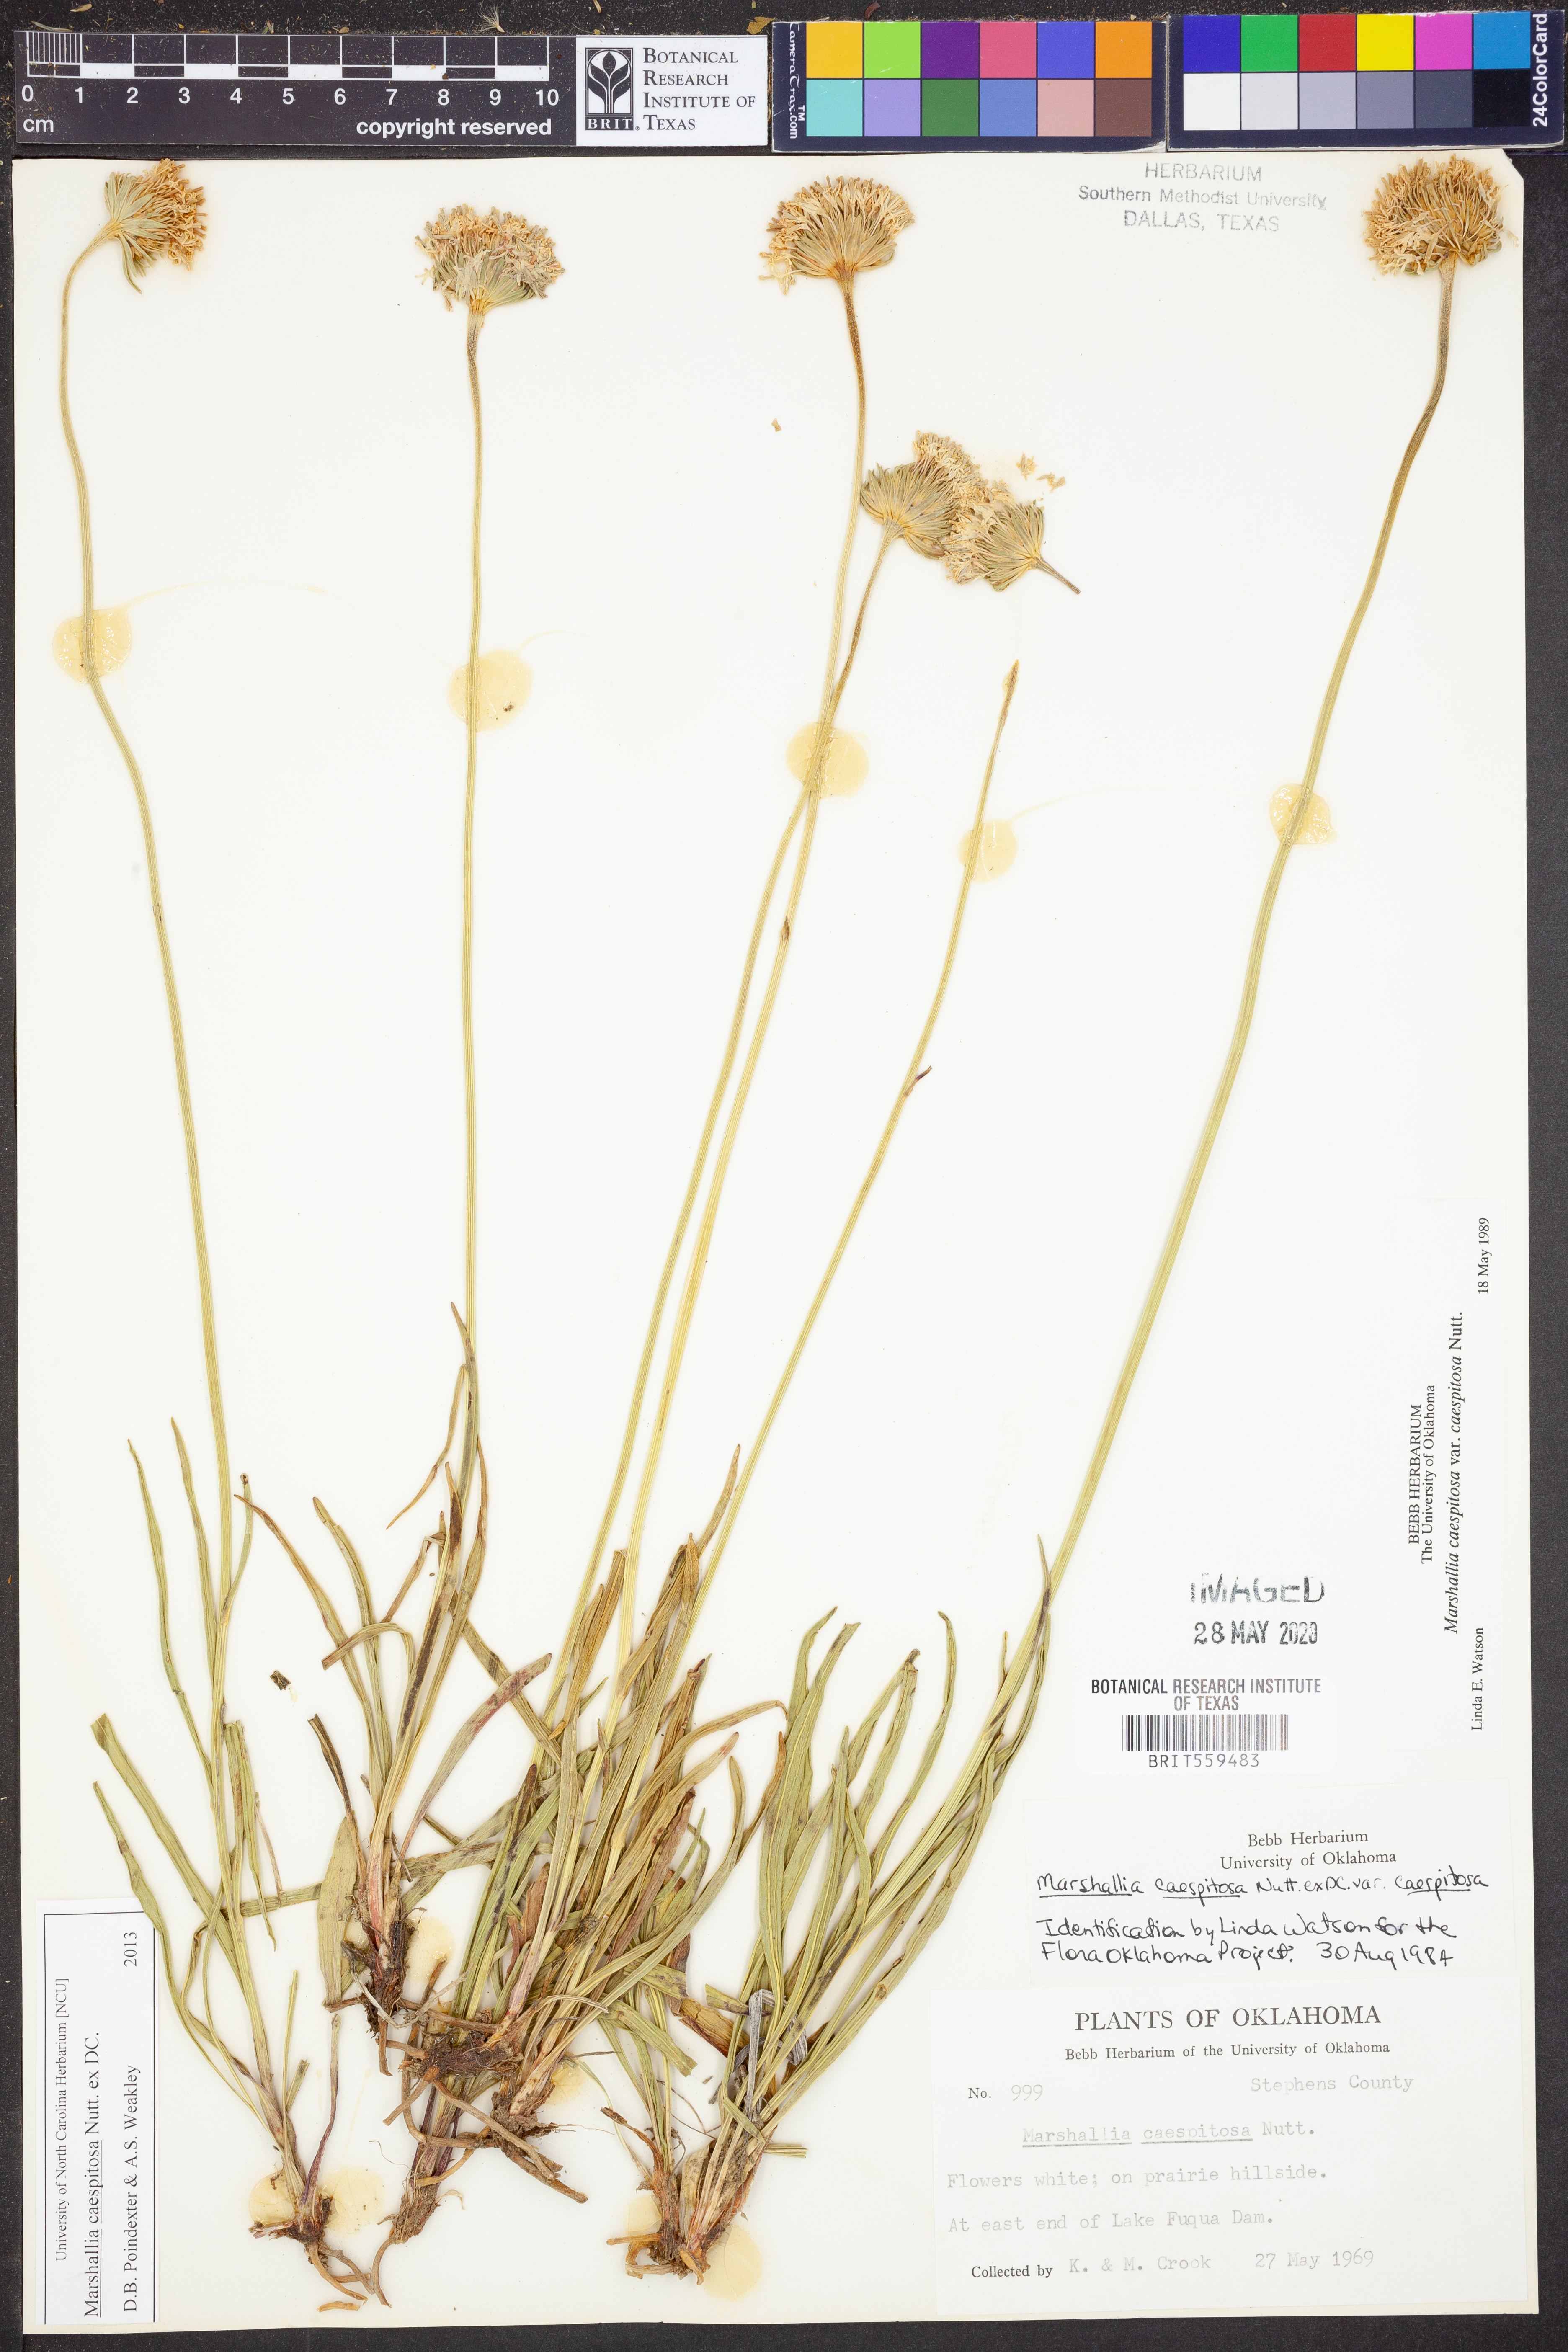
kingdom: Plantae
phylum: Tracheophyta
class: Magnoliopsida
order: Asterales
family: Asteraceae
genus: Marshallia
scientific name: Marshallia caespitosa
